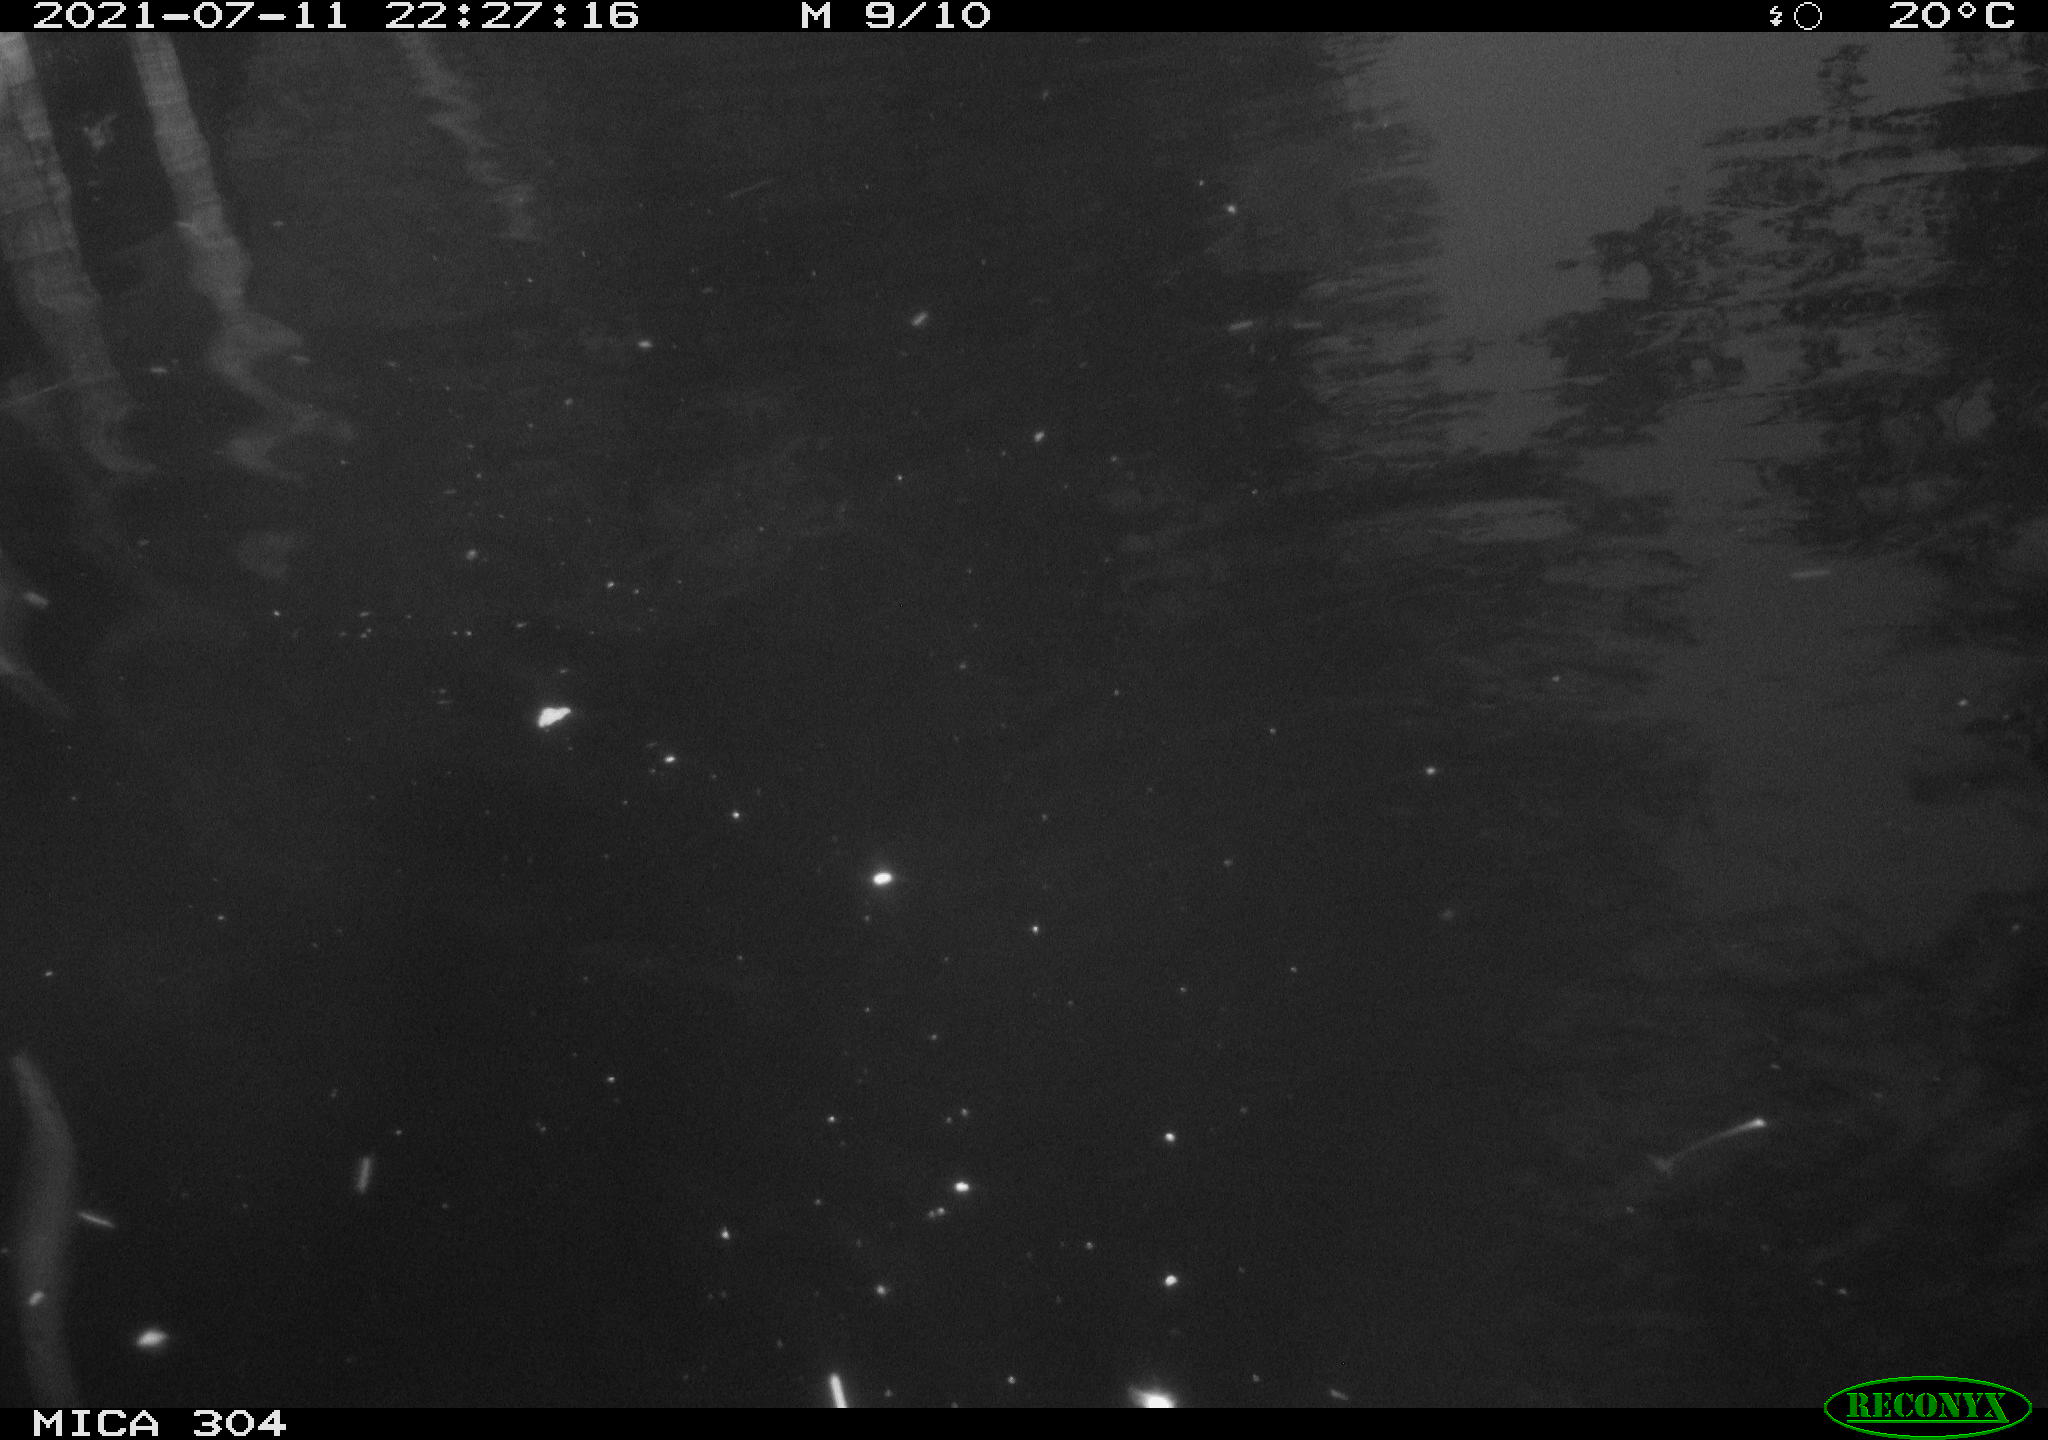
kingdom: Animalia
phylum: Chordata
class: Aves
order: Anseriformes
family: Anatidae
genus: Anas
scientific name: Anas platyrhynchos
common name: Mallard
